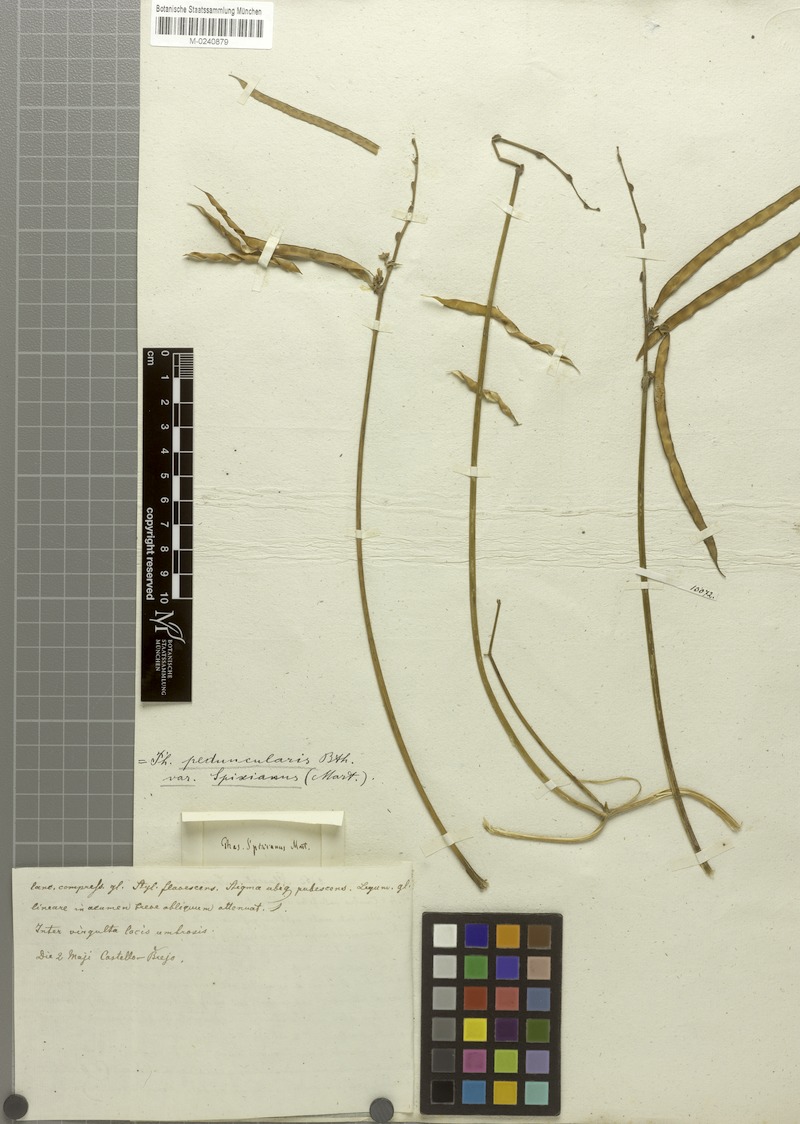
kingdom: Plantae
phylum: Tracheophyta
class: Magnoliopsida
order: Fabales
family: Fabaceae
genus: Ancistrotropis
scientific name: Ancistrotropis peduncularis
